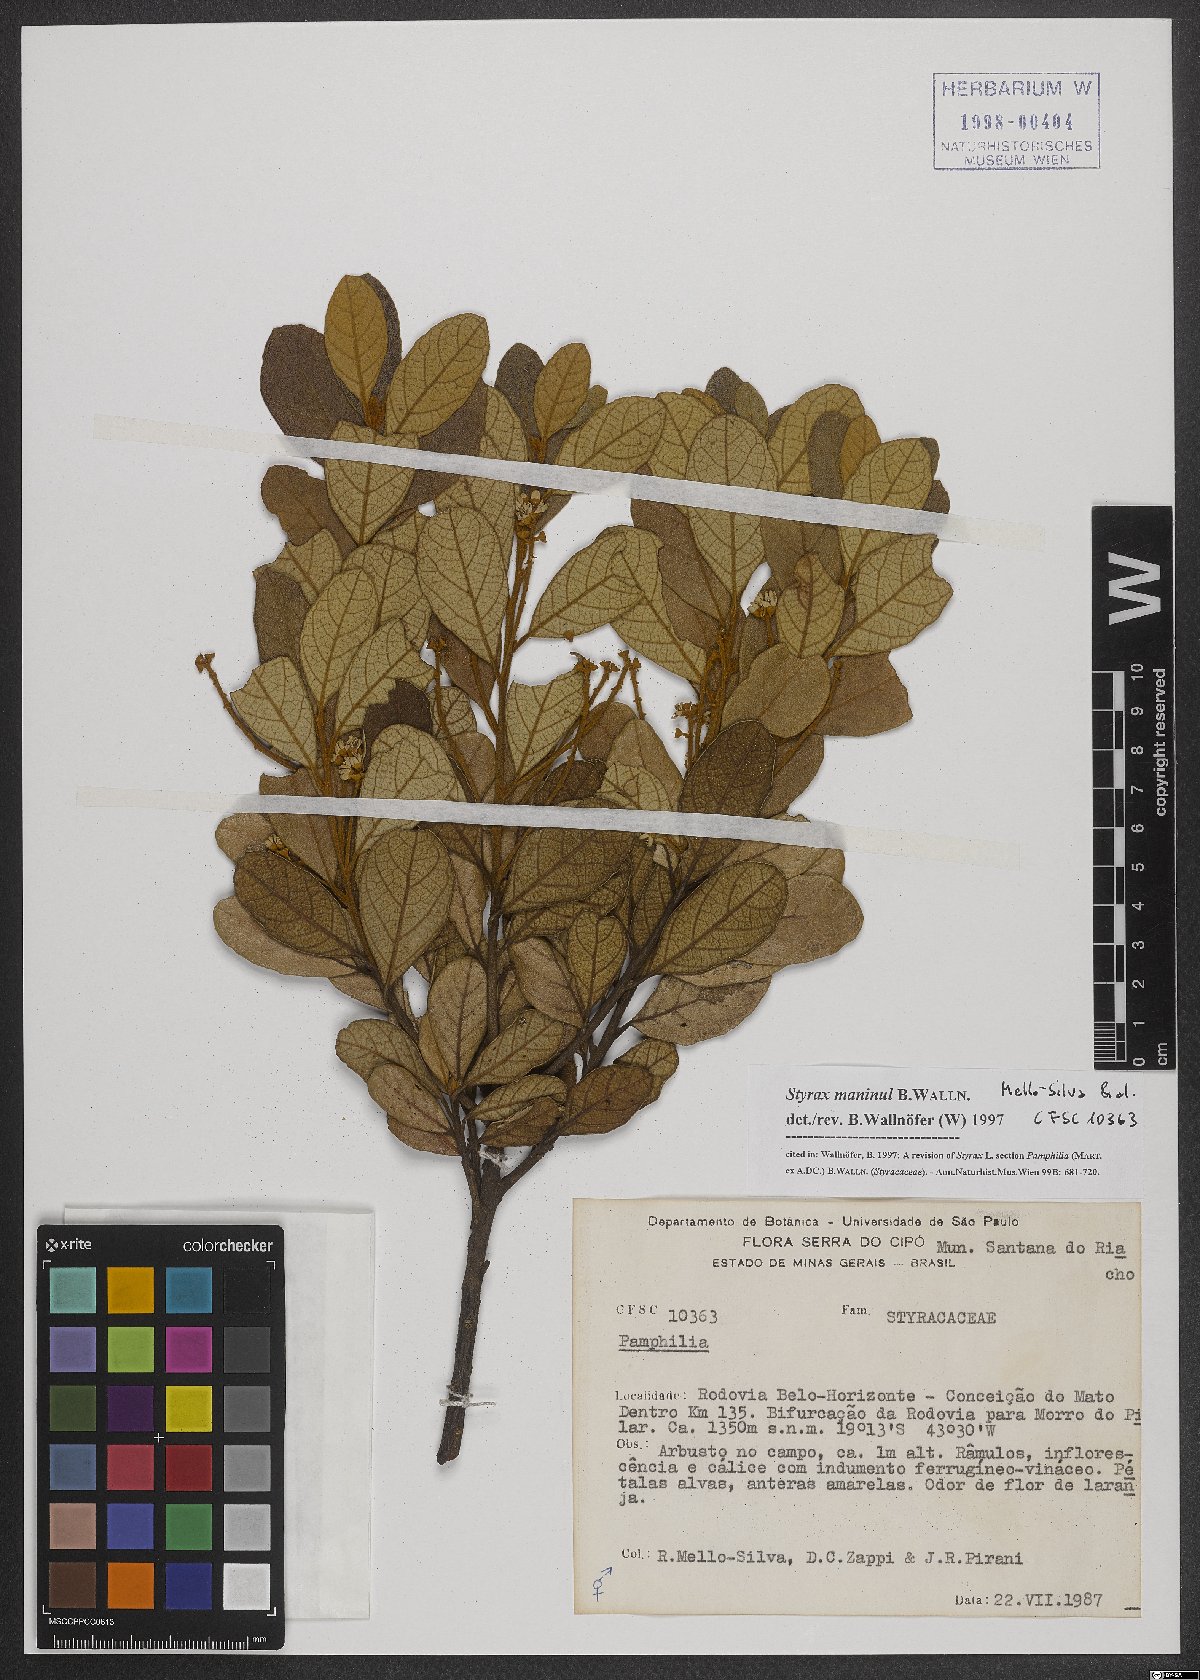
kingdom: Plantae
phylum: Tracheophyta
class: Magnoliopsida
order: Ericales
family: Styracaceae
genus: Styrax
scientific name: Styrax maninul
